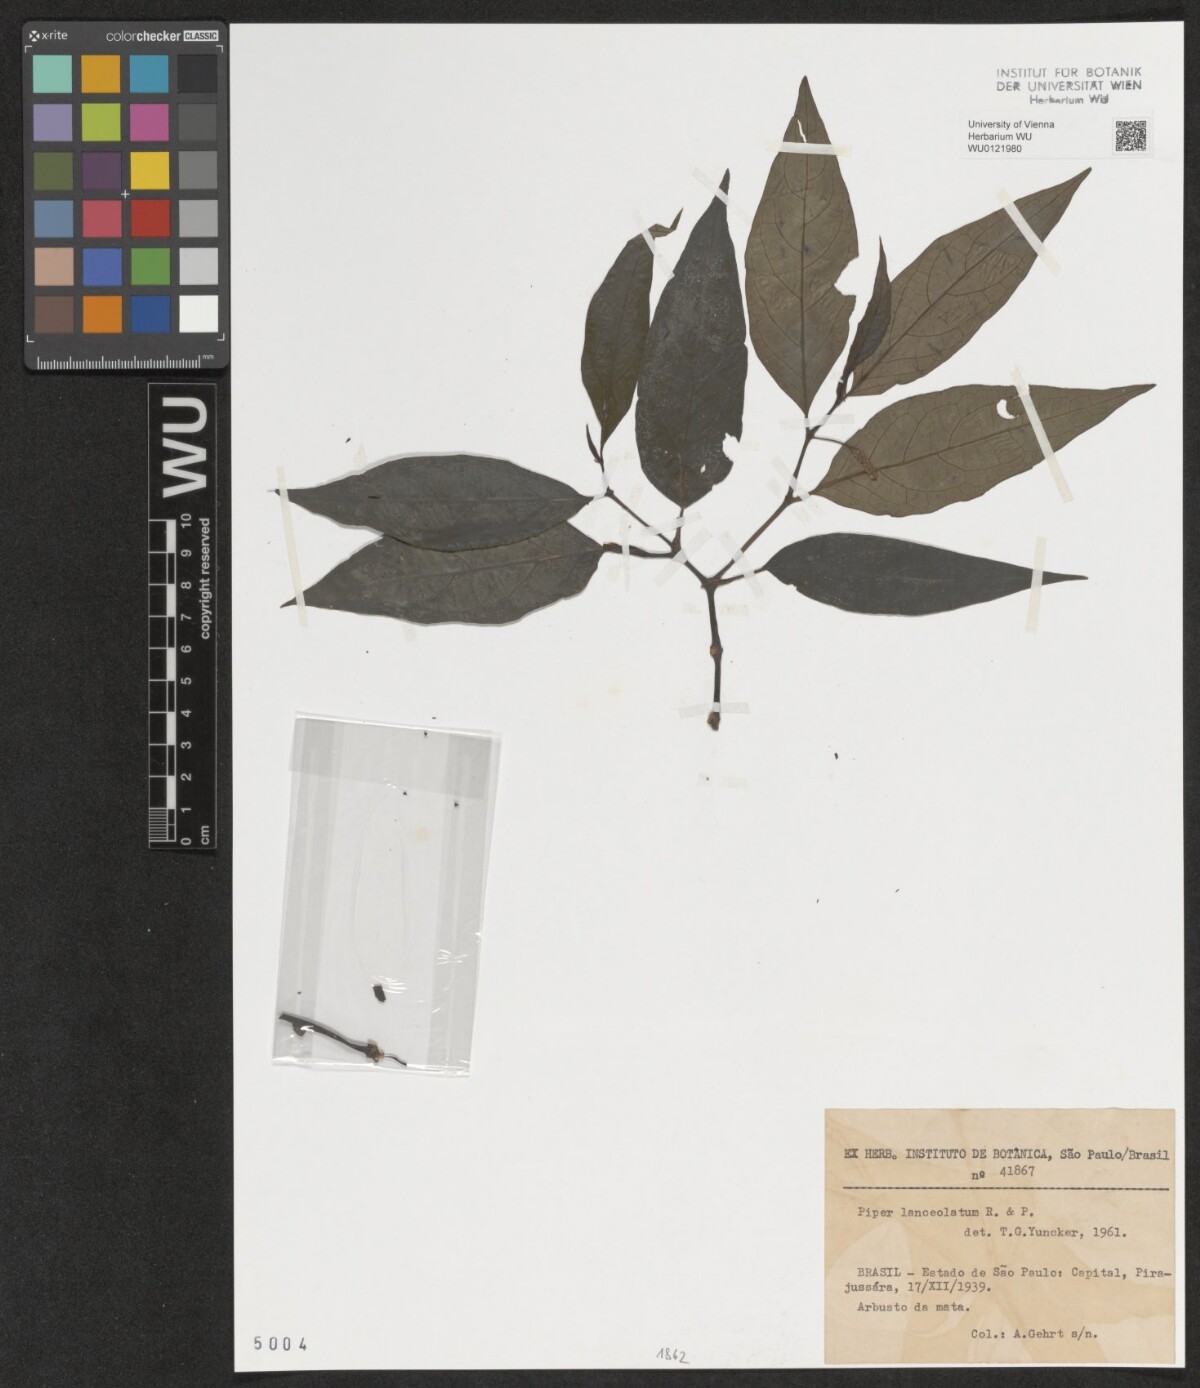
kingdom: Plantae
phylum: Tracheophyta
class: Magnoliopsida
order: Piperales
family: Piperaceae
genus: Piper
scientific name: Piper lanceolatum
